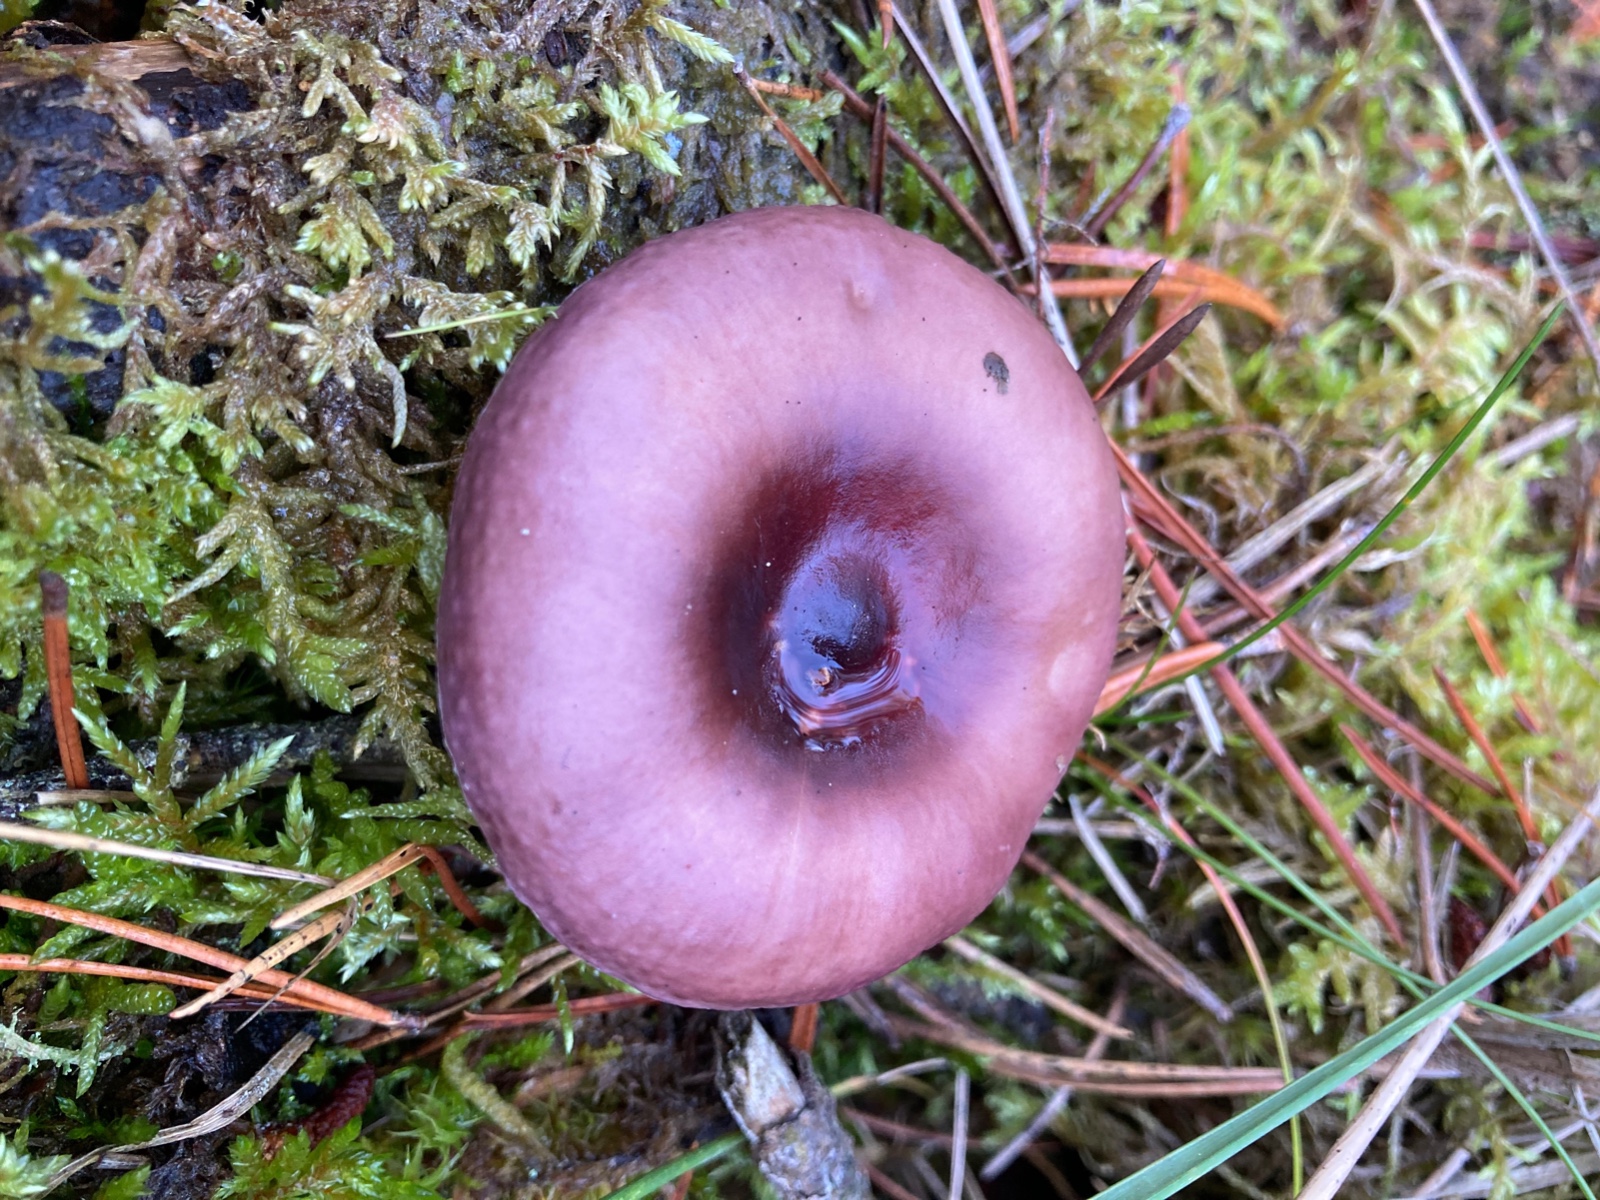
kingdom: Fungi
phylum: Basidiomycota
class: Agaricomycetes
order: Russulales
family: Russulaceae
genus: Russula
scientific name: Russula caerulea
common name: puklet skørhat
